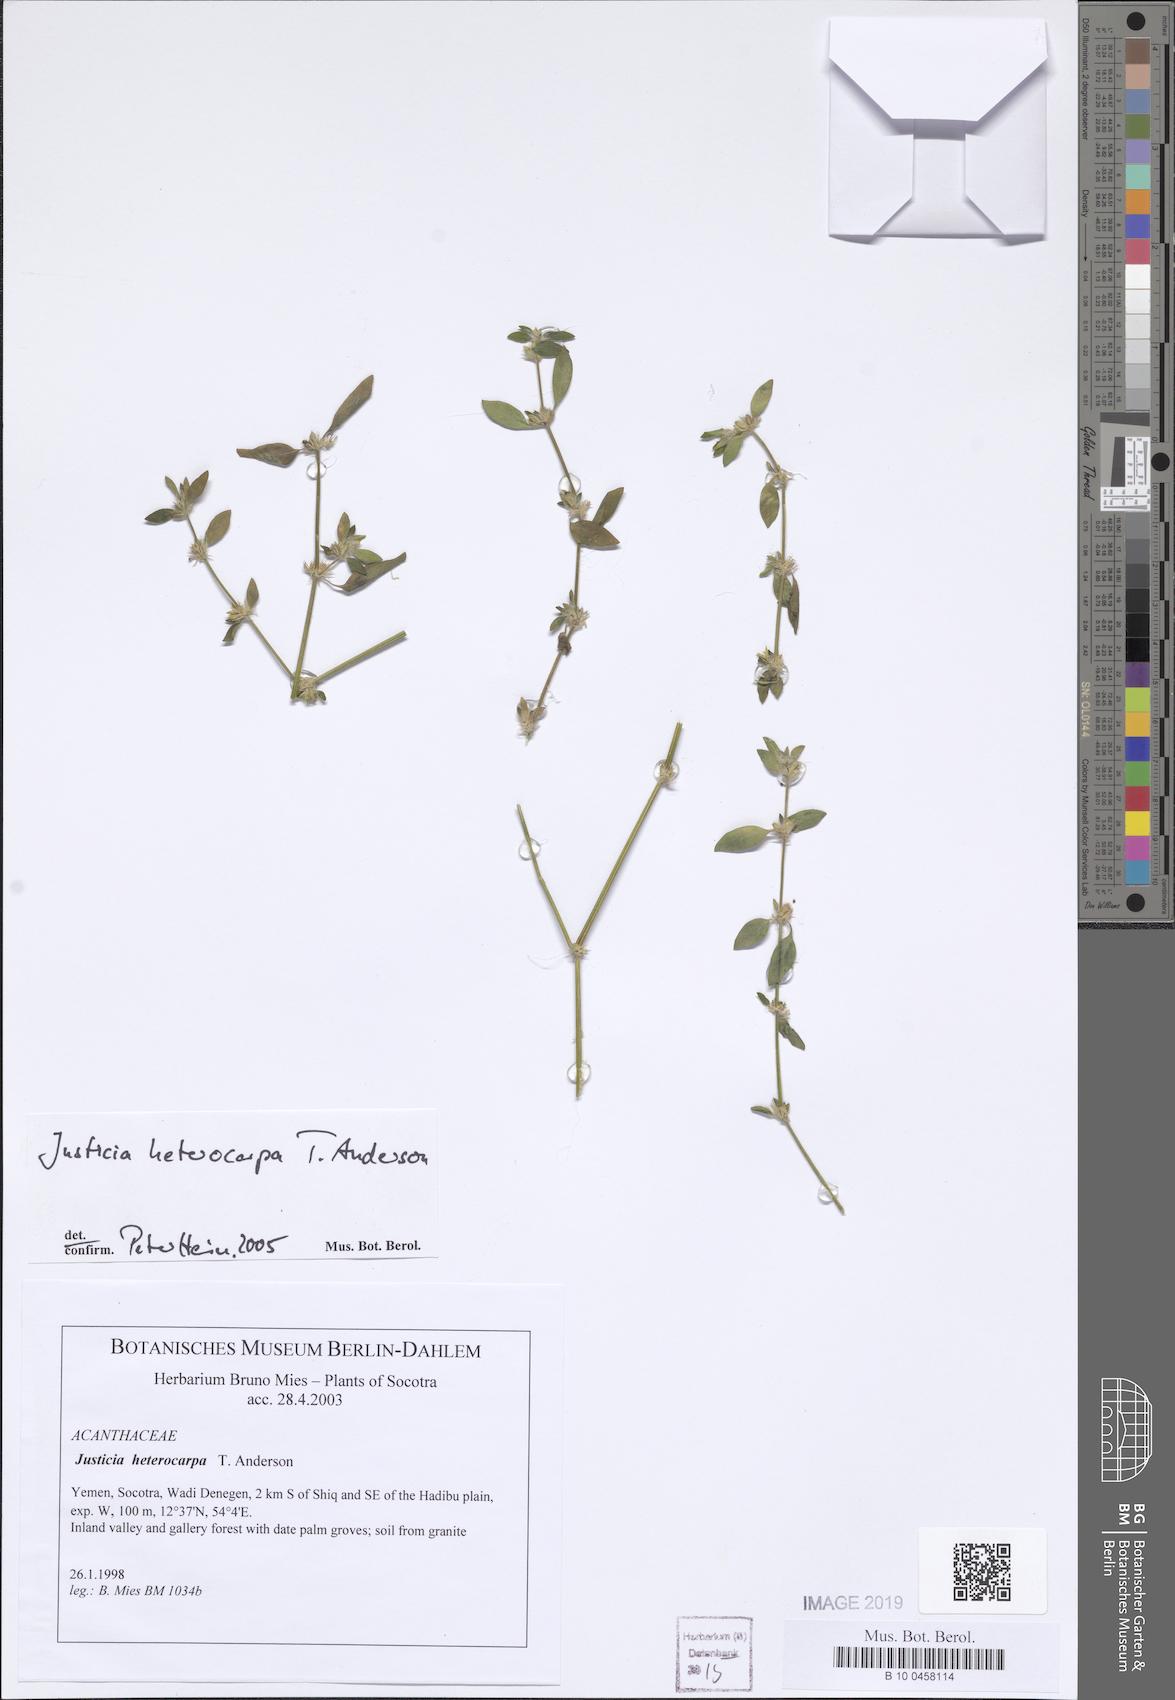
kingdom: Plantae
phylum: Tracheophyta
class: Magnoliopsida
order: Lamiales
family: Acanthaceae
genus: Justicia
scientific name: Justicia heterocarpa
